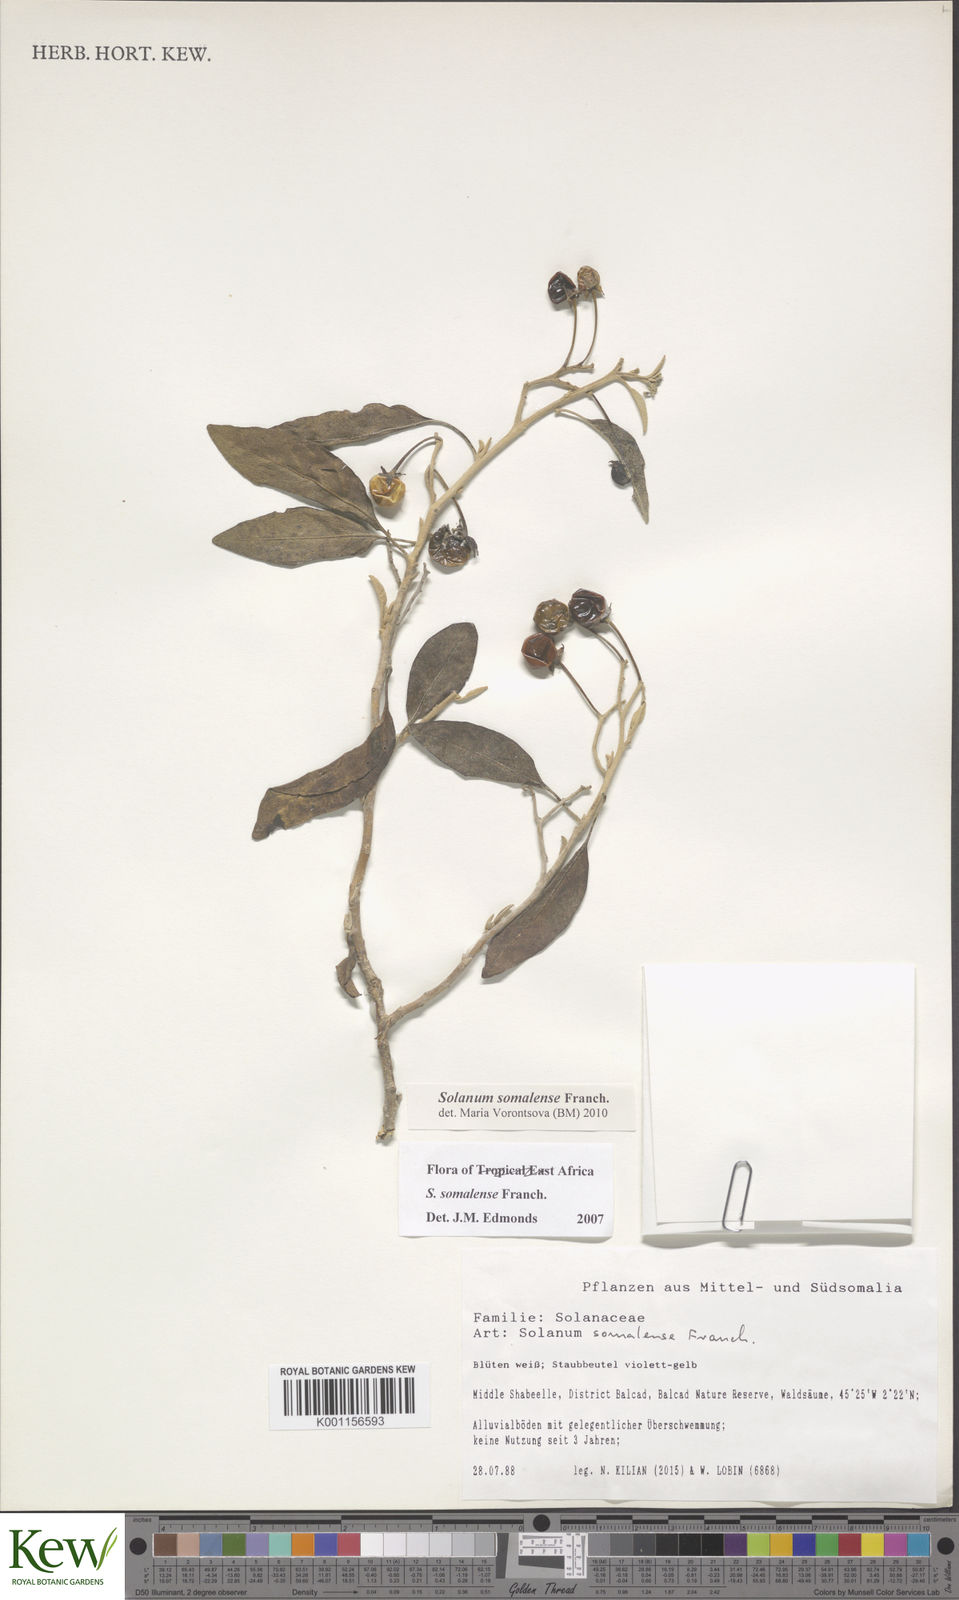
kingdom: Plantae
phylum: Tracheophyta
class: Magnoliopsida
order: Solanales
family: Solanaceae
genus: Solanum
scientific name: Solanum somalense
